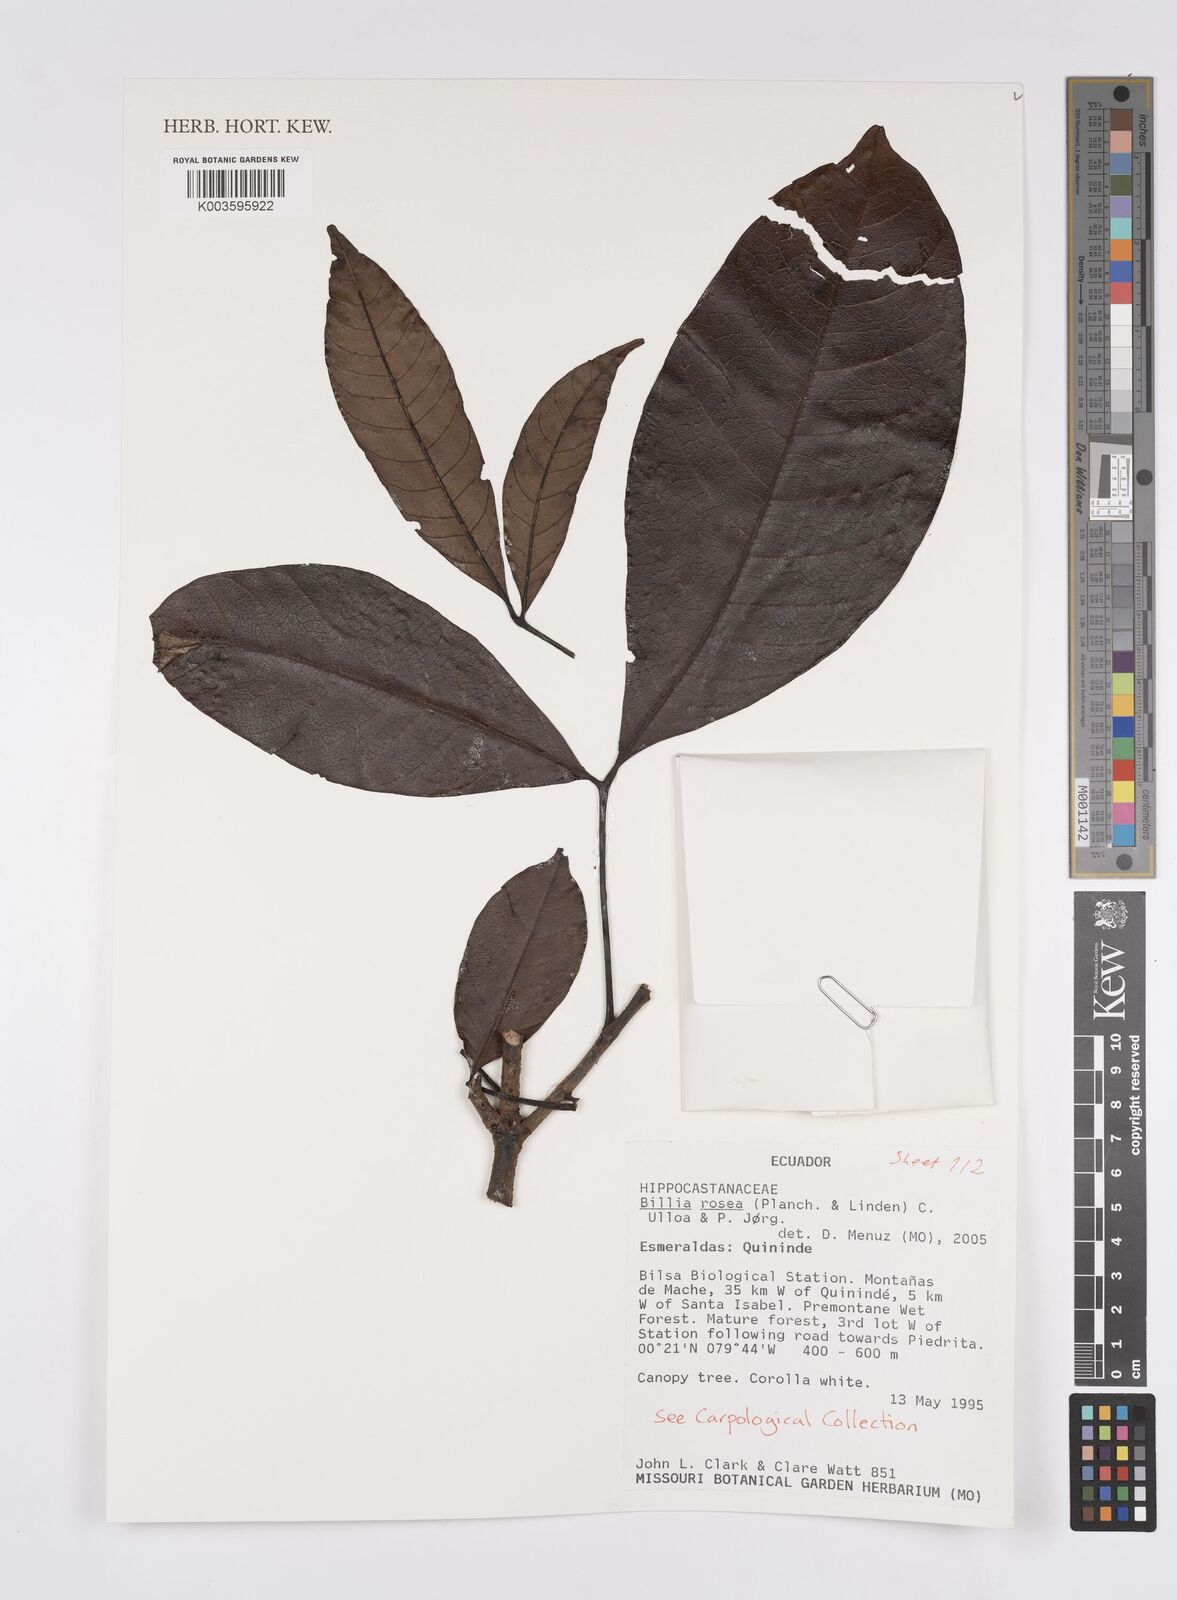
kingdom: Plantae
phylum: Tracheophyta
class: Magnoliopsida
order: Sapindales
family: Sapindaceae
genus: Billia
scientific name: Billia
